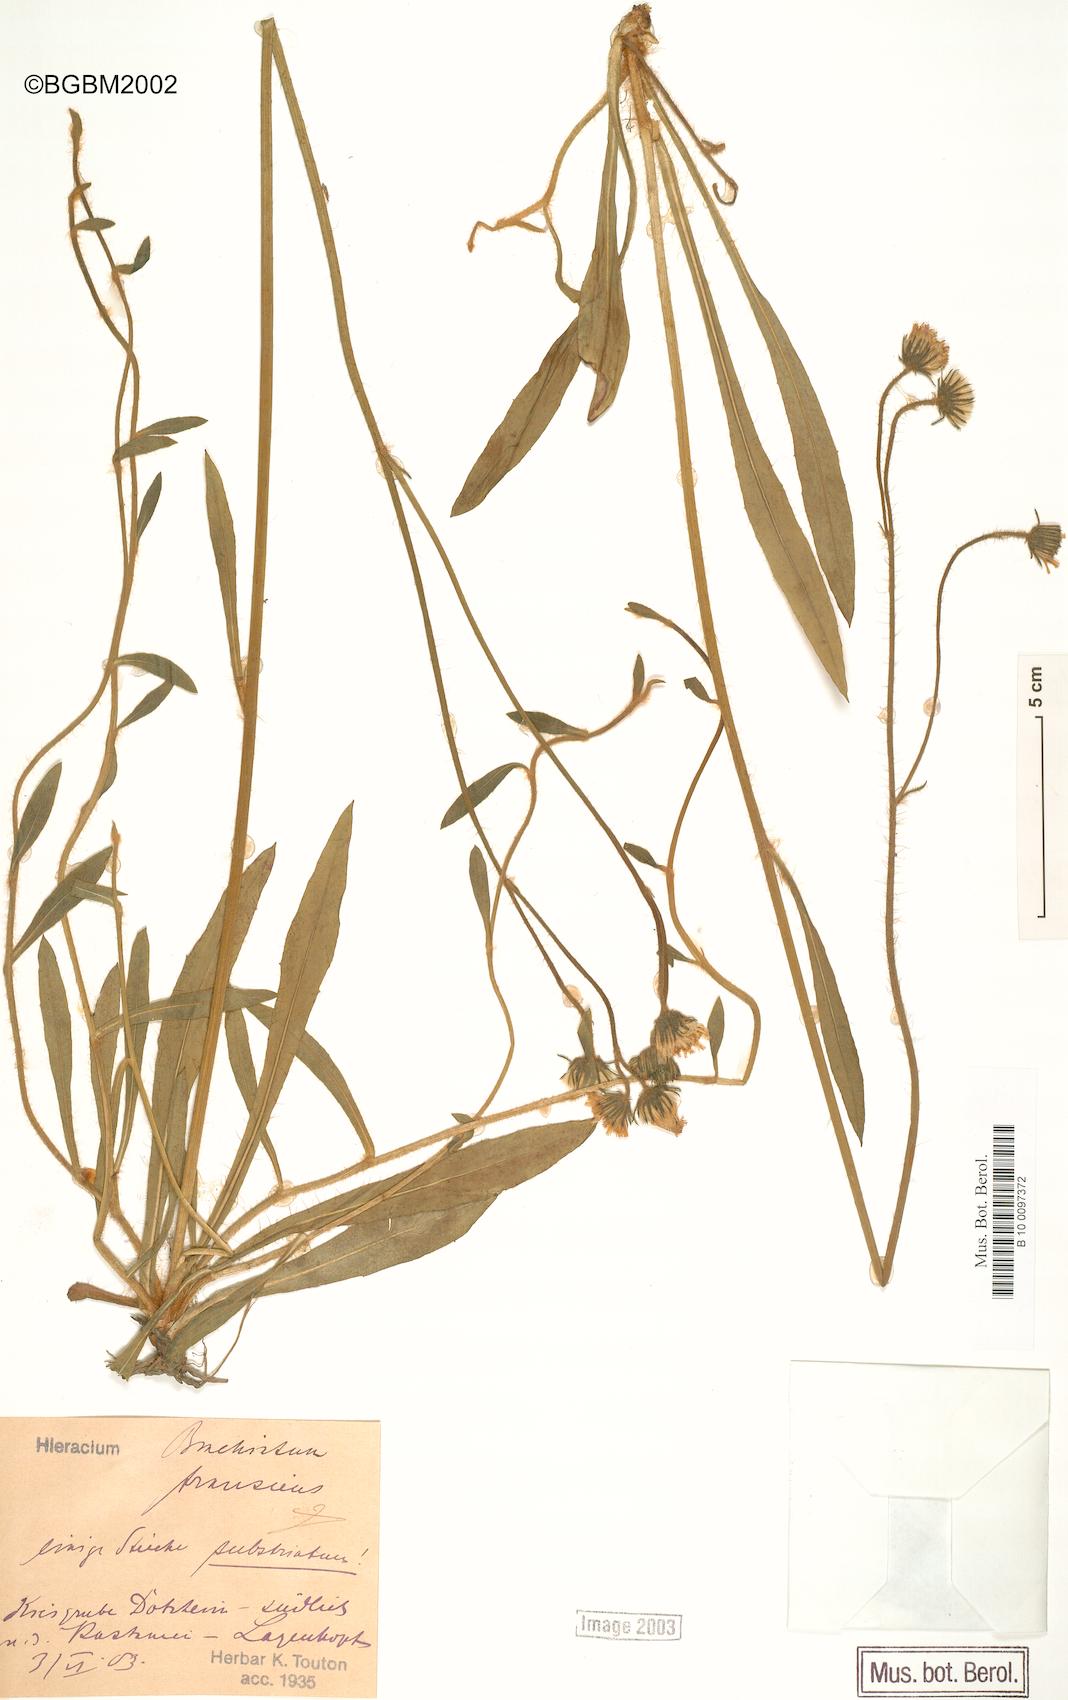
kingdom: Plantae
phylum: Tracheophyta
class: Magnoliopsida
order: Asterales
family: Asteraceae
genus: Pilosella
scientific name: Pilosella acutifolia
